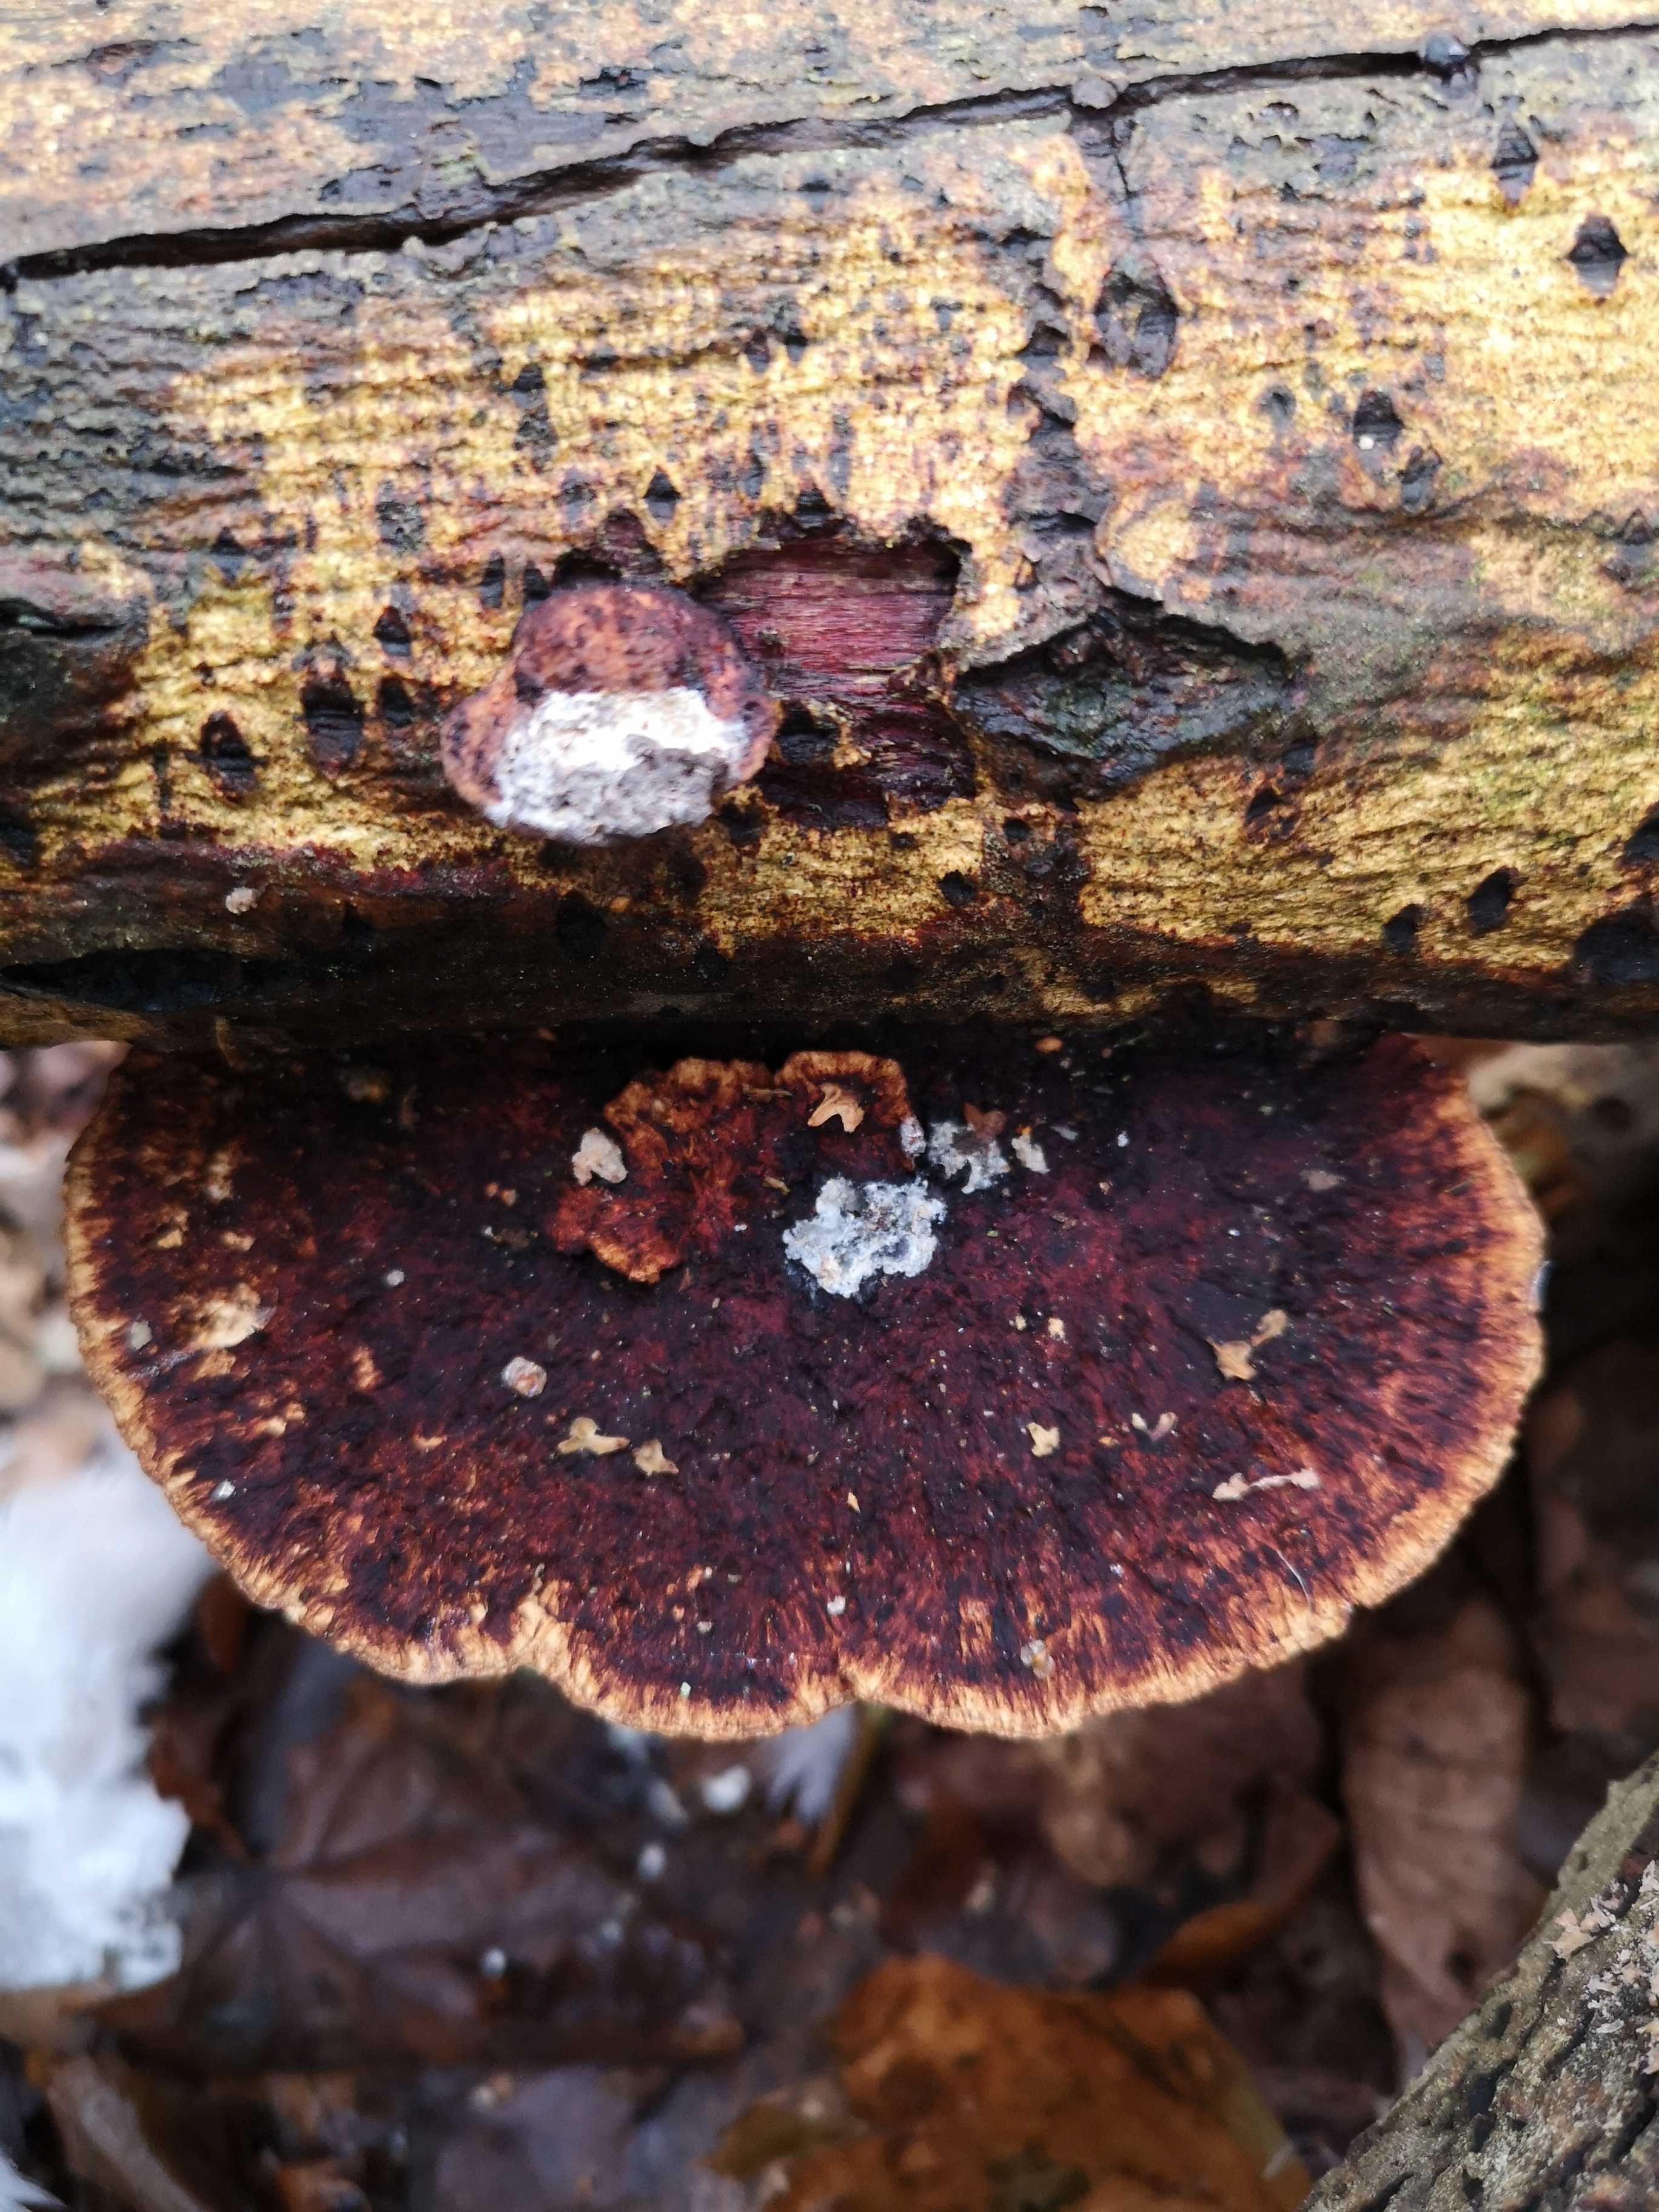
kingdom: Fungi
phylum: Basidiomycota
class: Agaricomycetes
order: Polyporales
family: Polyporaceae
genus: Daedaleopsis
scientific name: Daedaleopsis confragosa
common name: rødmende læderporesvamp
